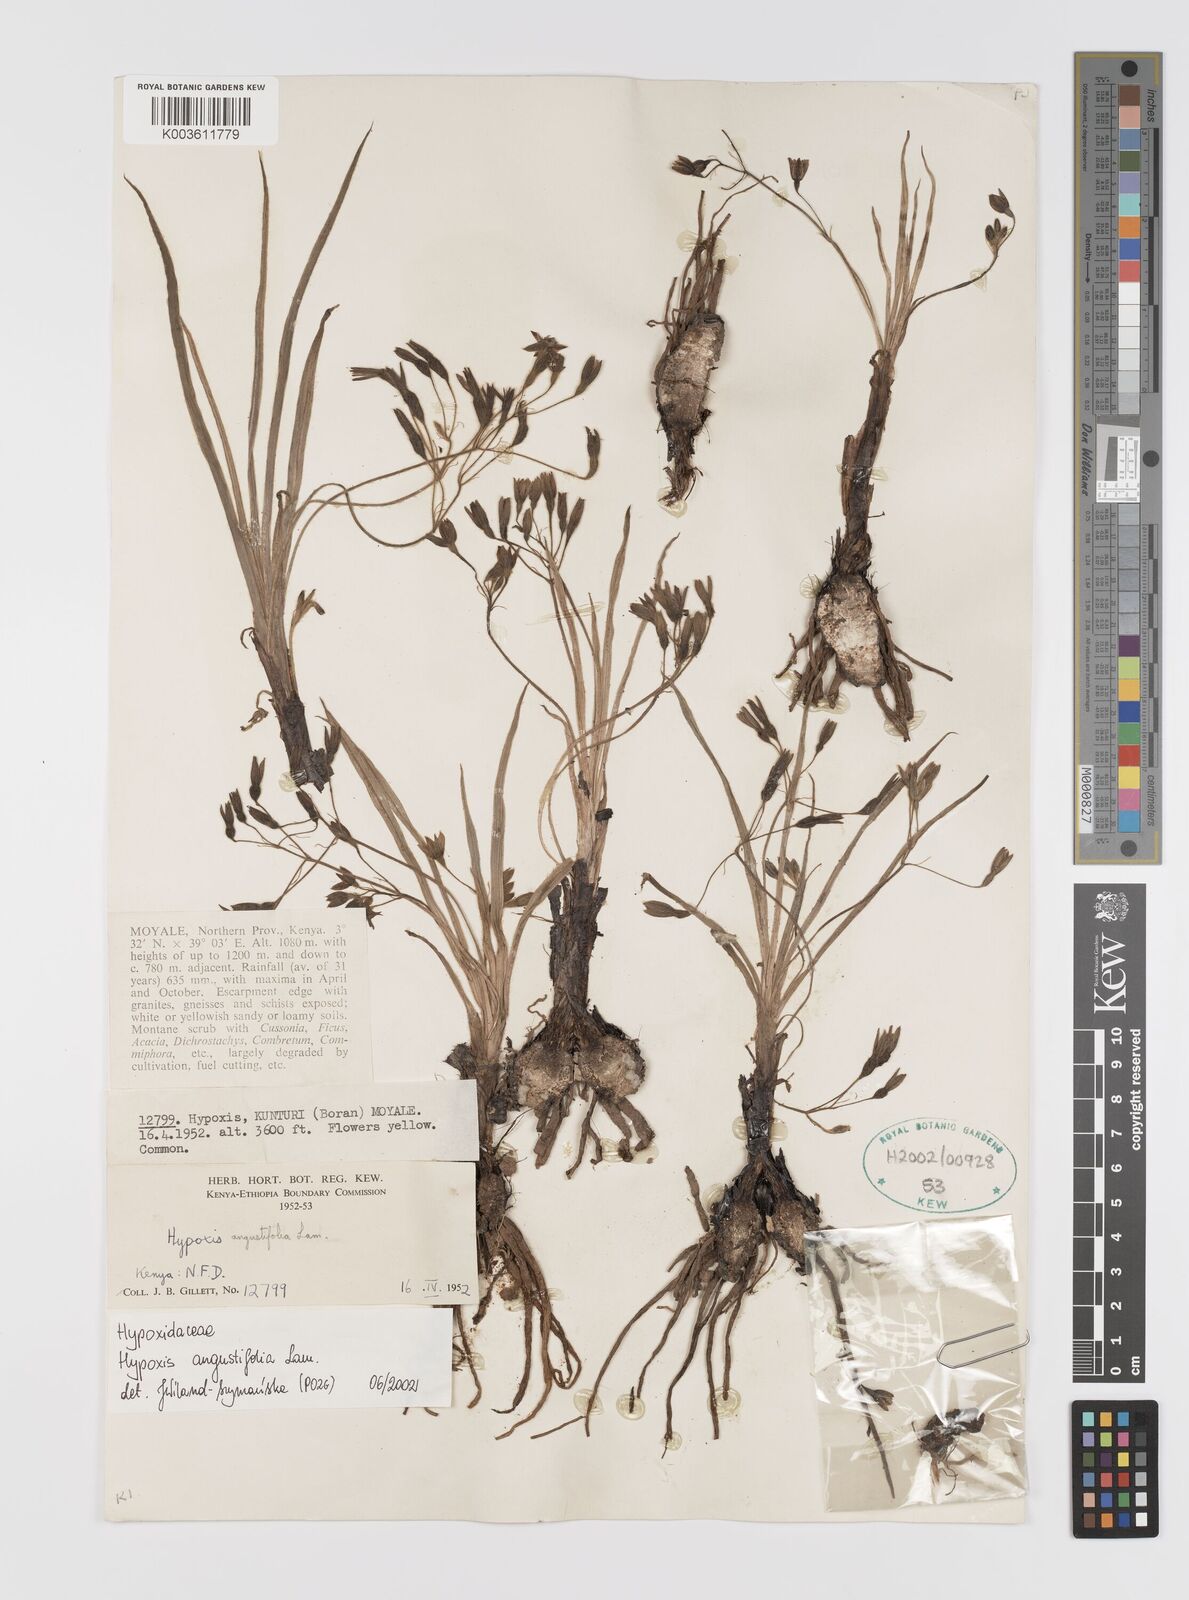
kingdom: Plantae
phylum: Tracheophyta
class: Liliopsida
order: Asparagales
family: Hypoxidaceae
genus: Hypoxis
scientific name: Hypoxis angustifolia
